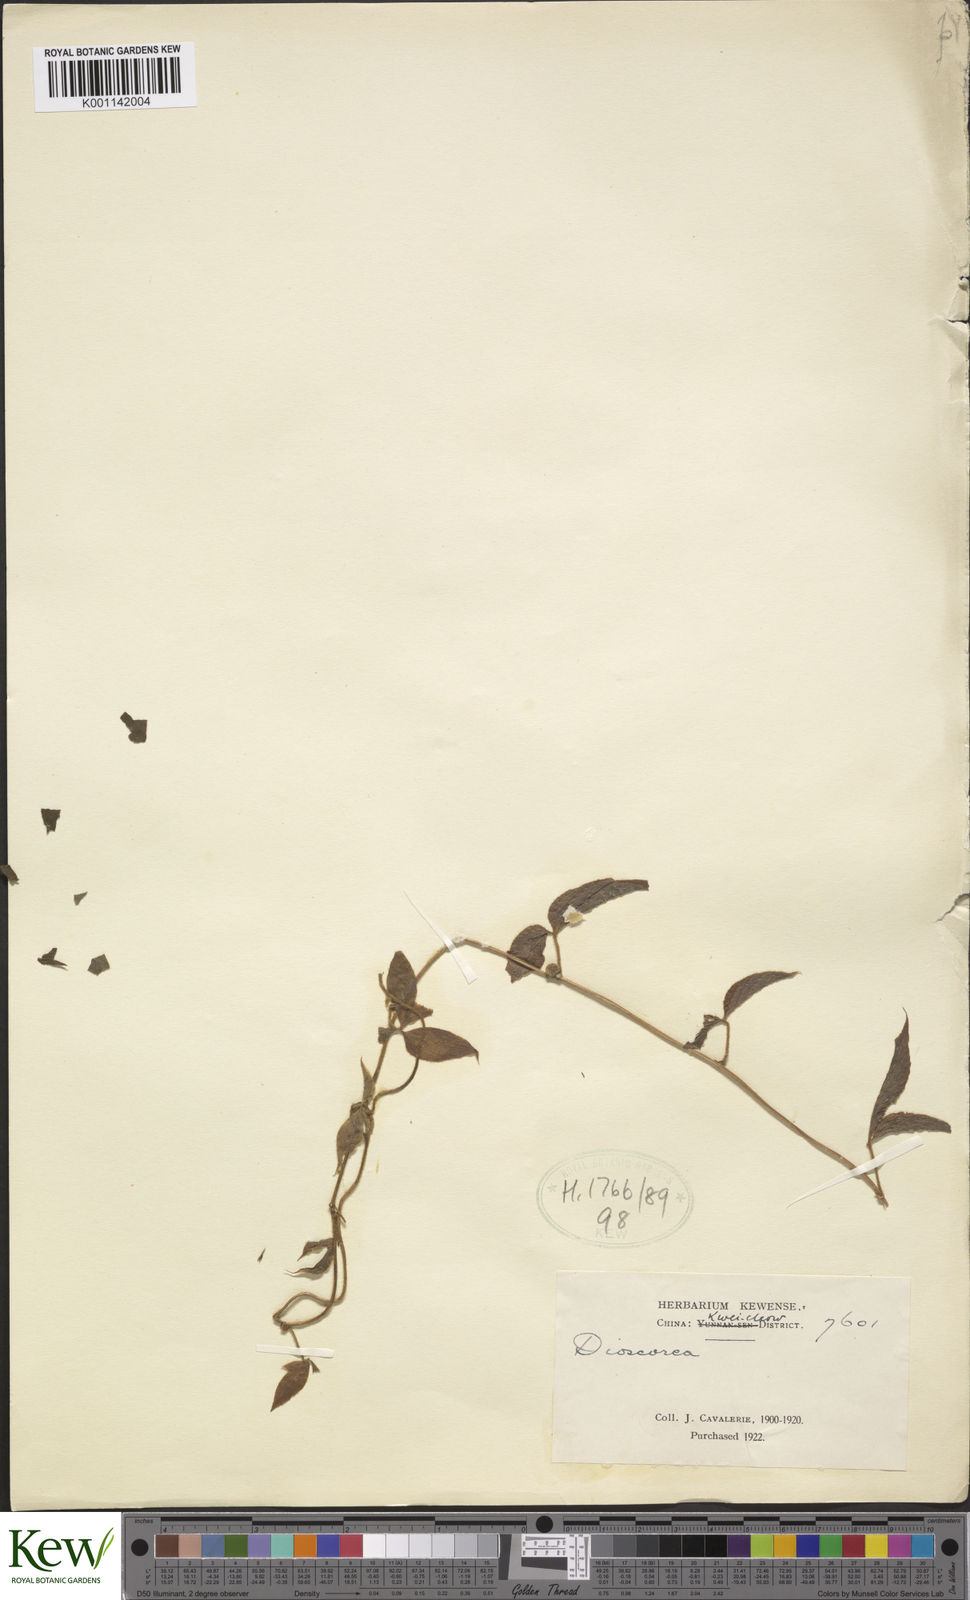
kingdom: Plantae
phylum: Tracheophyta
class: Liliopsida
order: Dioscoreales
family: Dioscoreaceae
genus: Dioscorea
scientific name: Dioscorea
